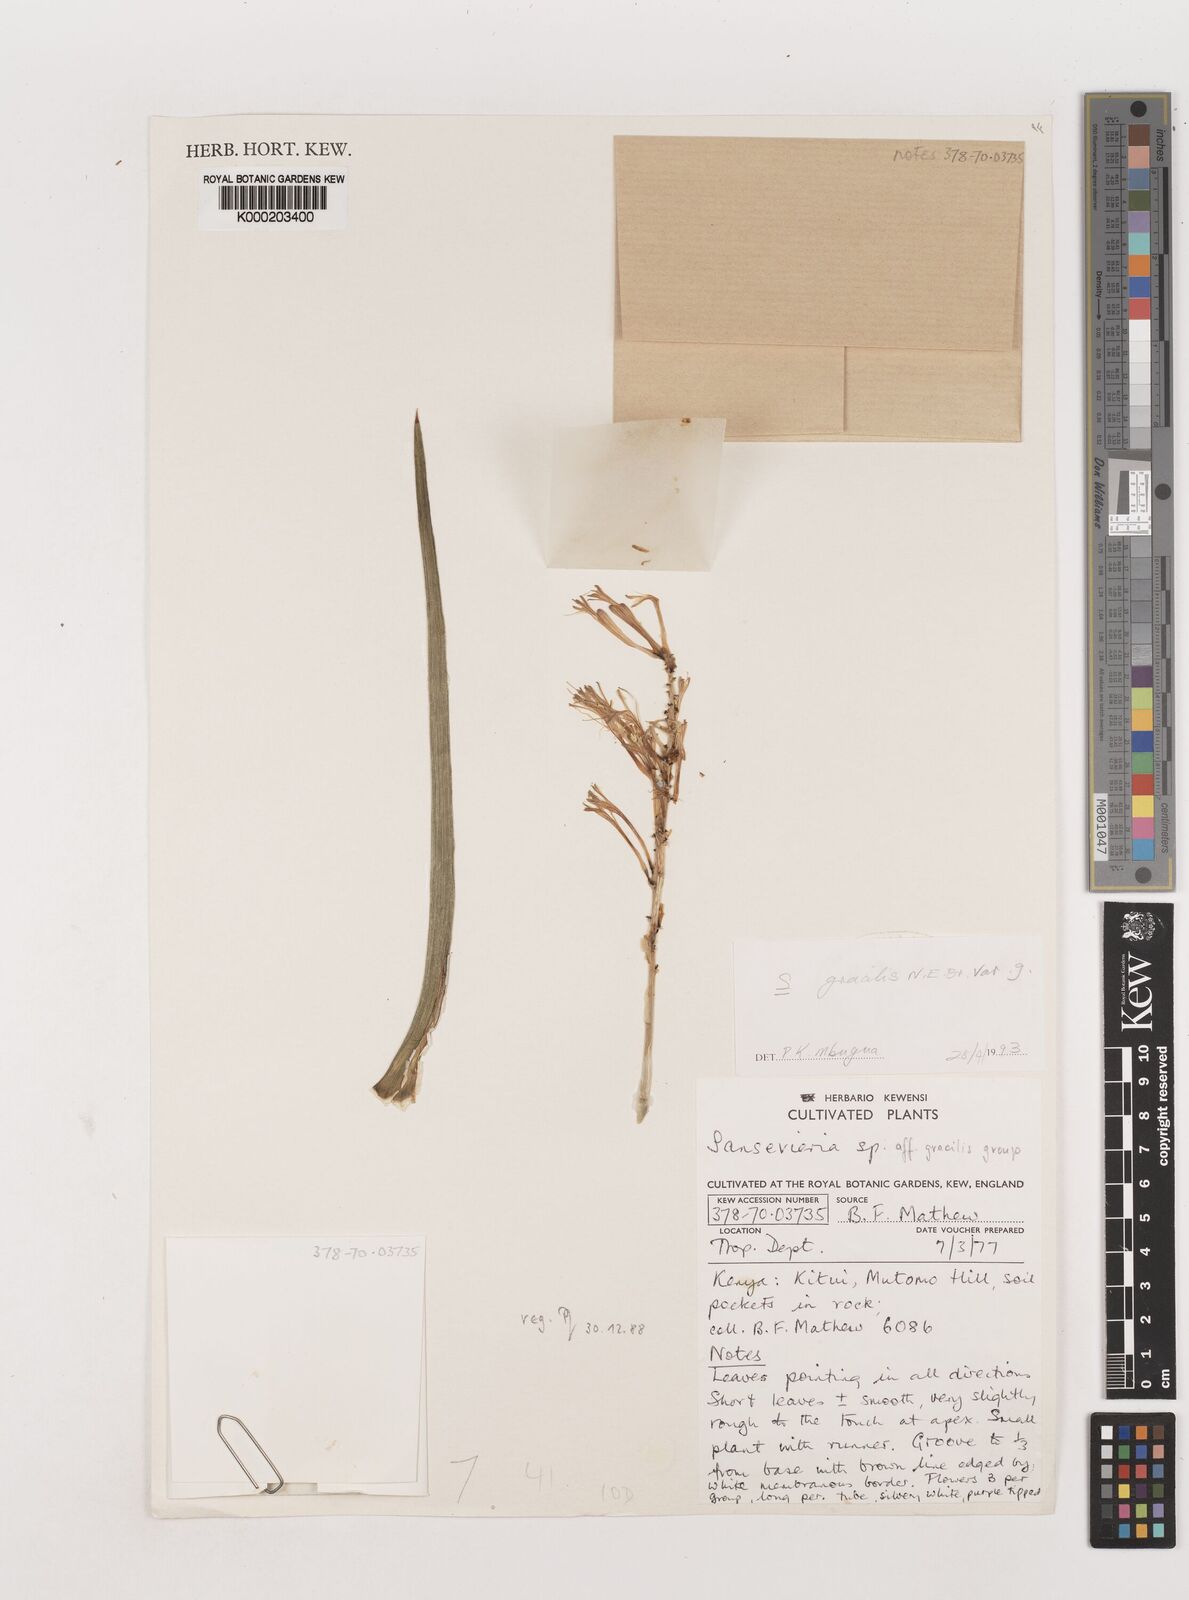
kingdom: Plantae
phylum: Tracheophyta
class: Liliopsida
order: Asparagales
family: Asparagaceae
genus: Dracaena
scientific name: Dracaena serpenta
